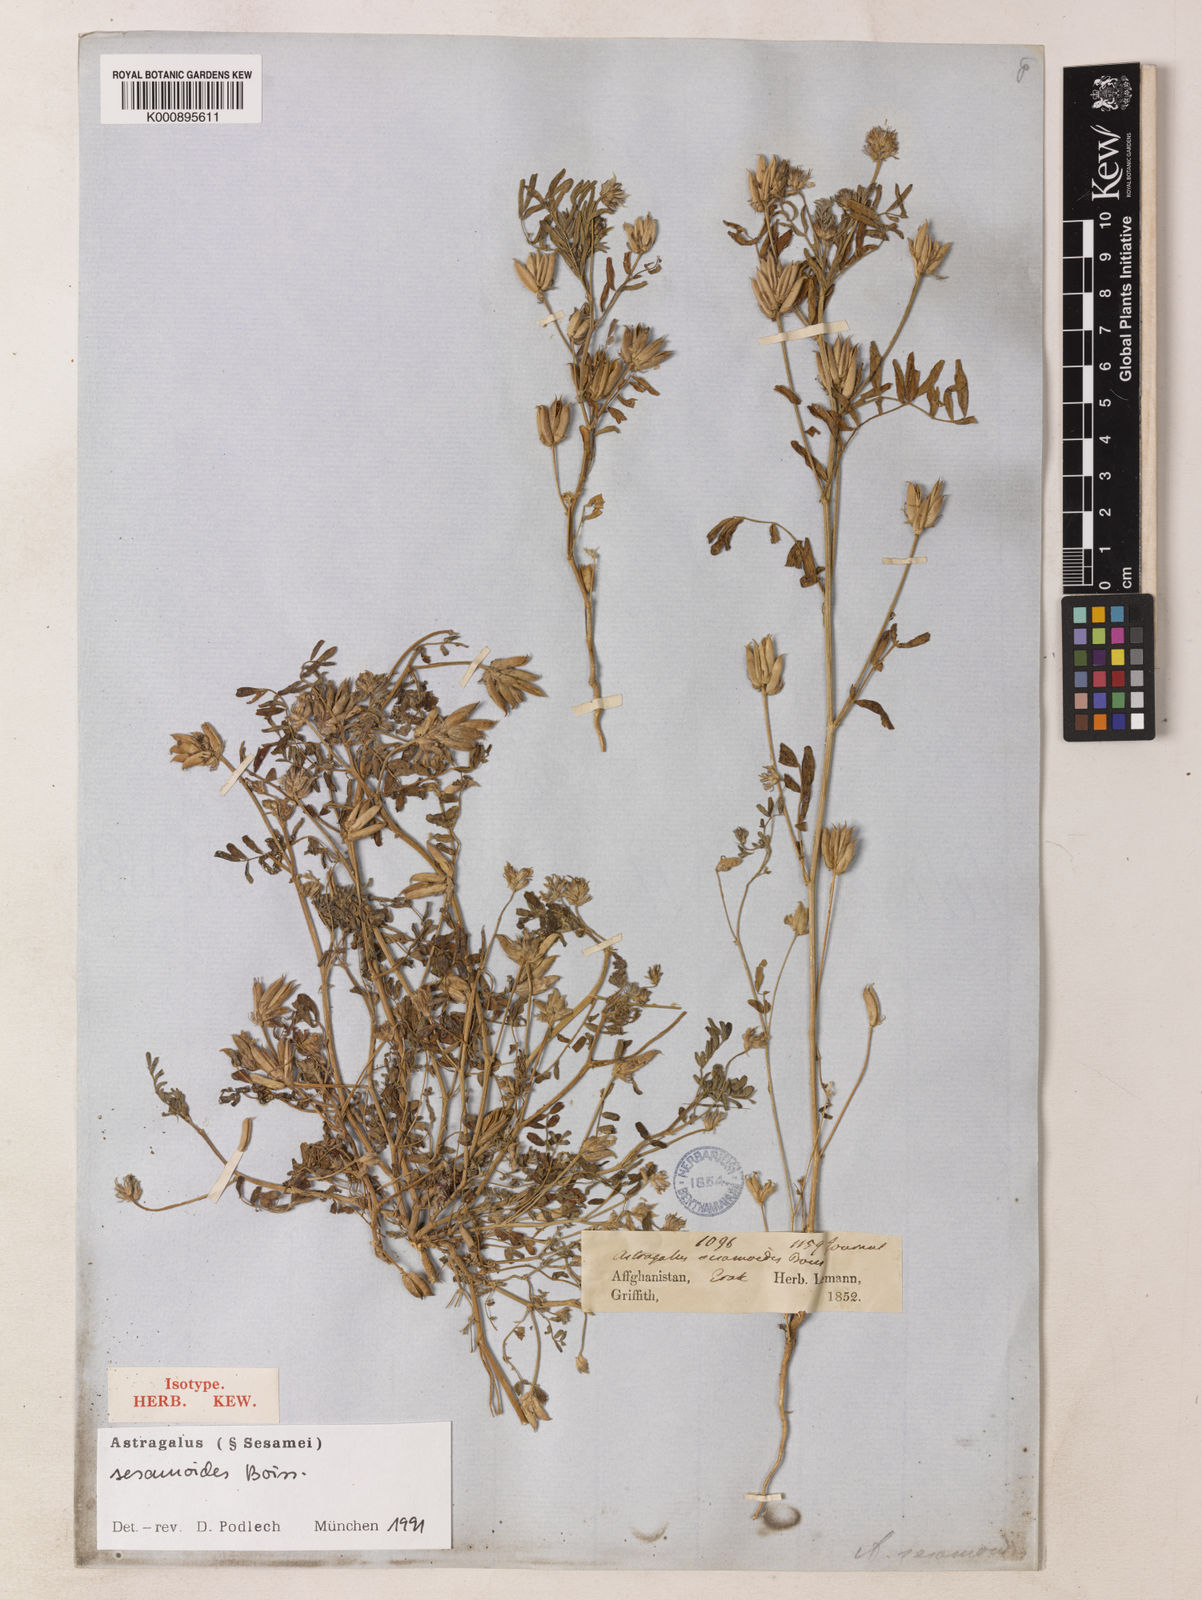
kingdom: Plantae
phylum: Tracheophyta
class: Magnoliopsida
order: Fabales
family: Fabaceae
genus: Astragalus
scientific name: Astragalus sesamoides
